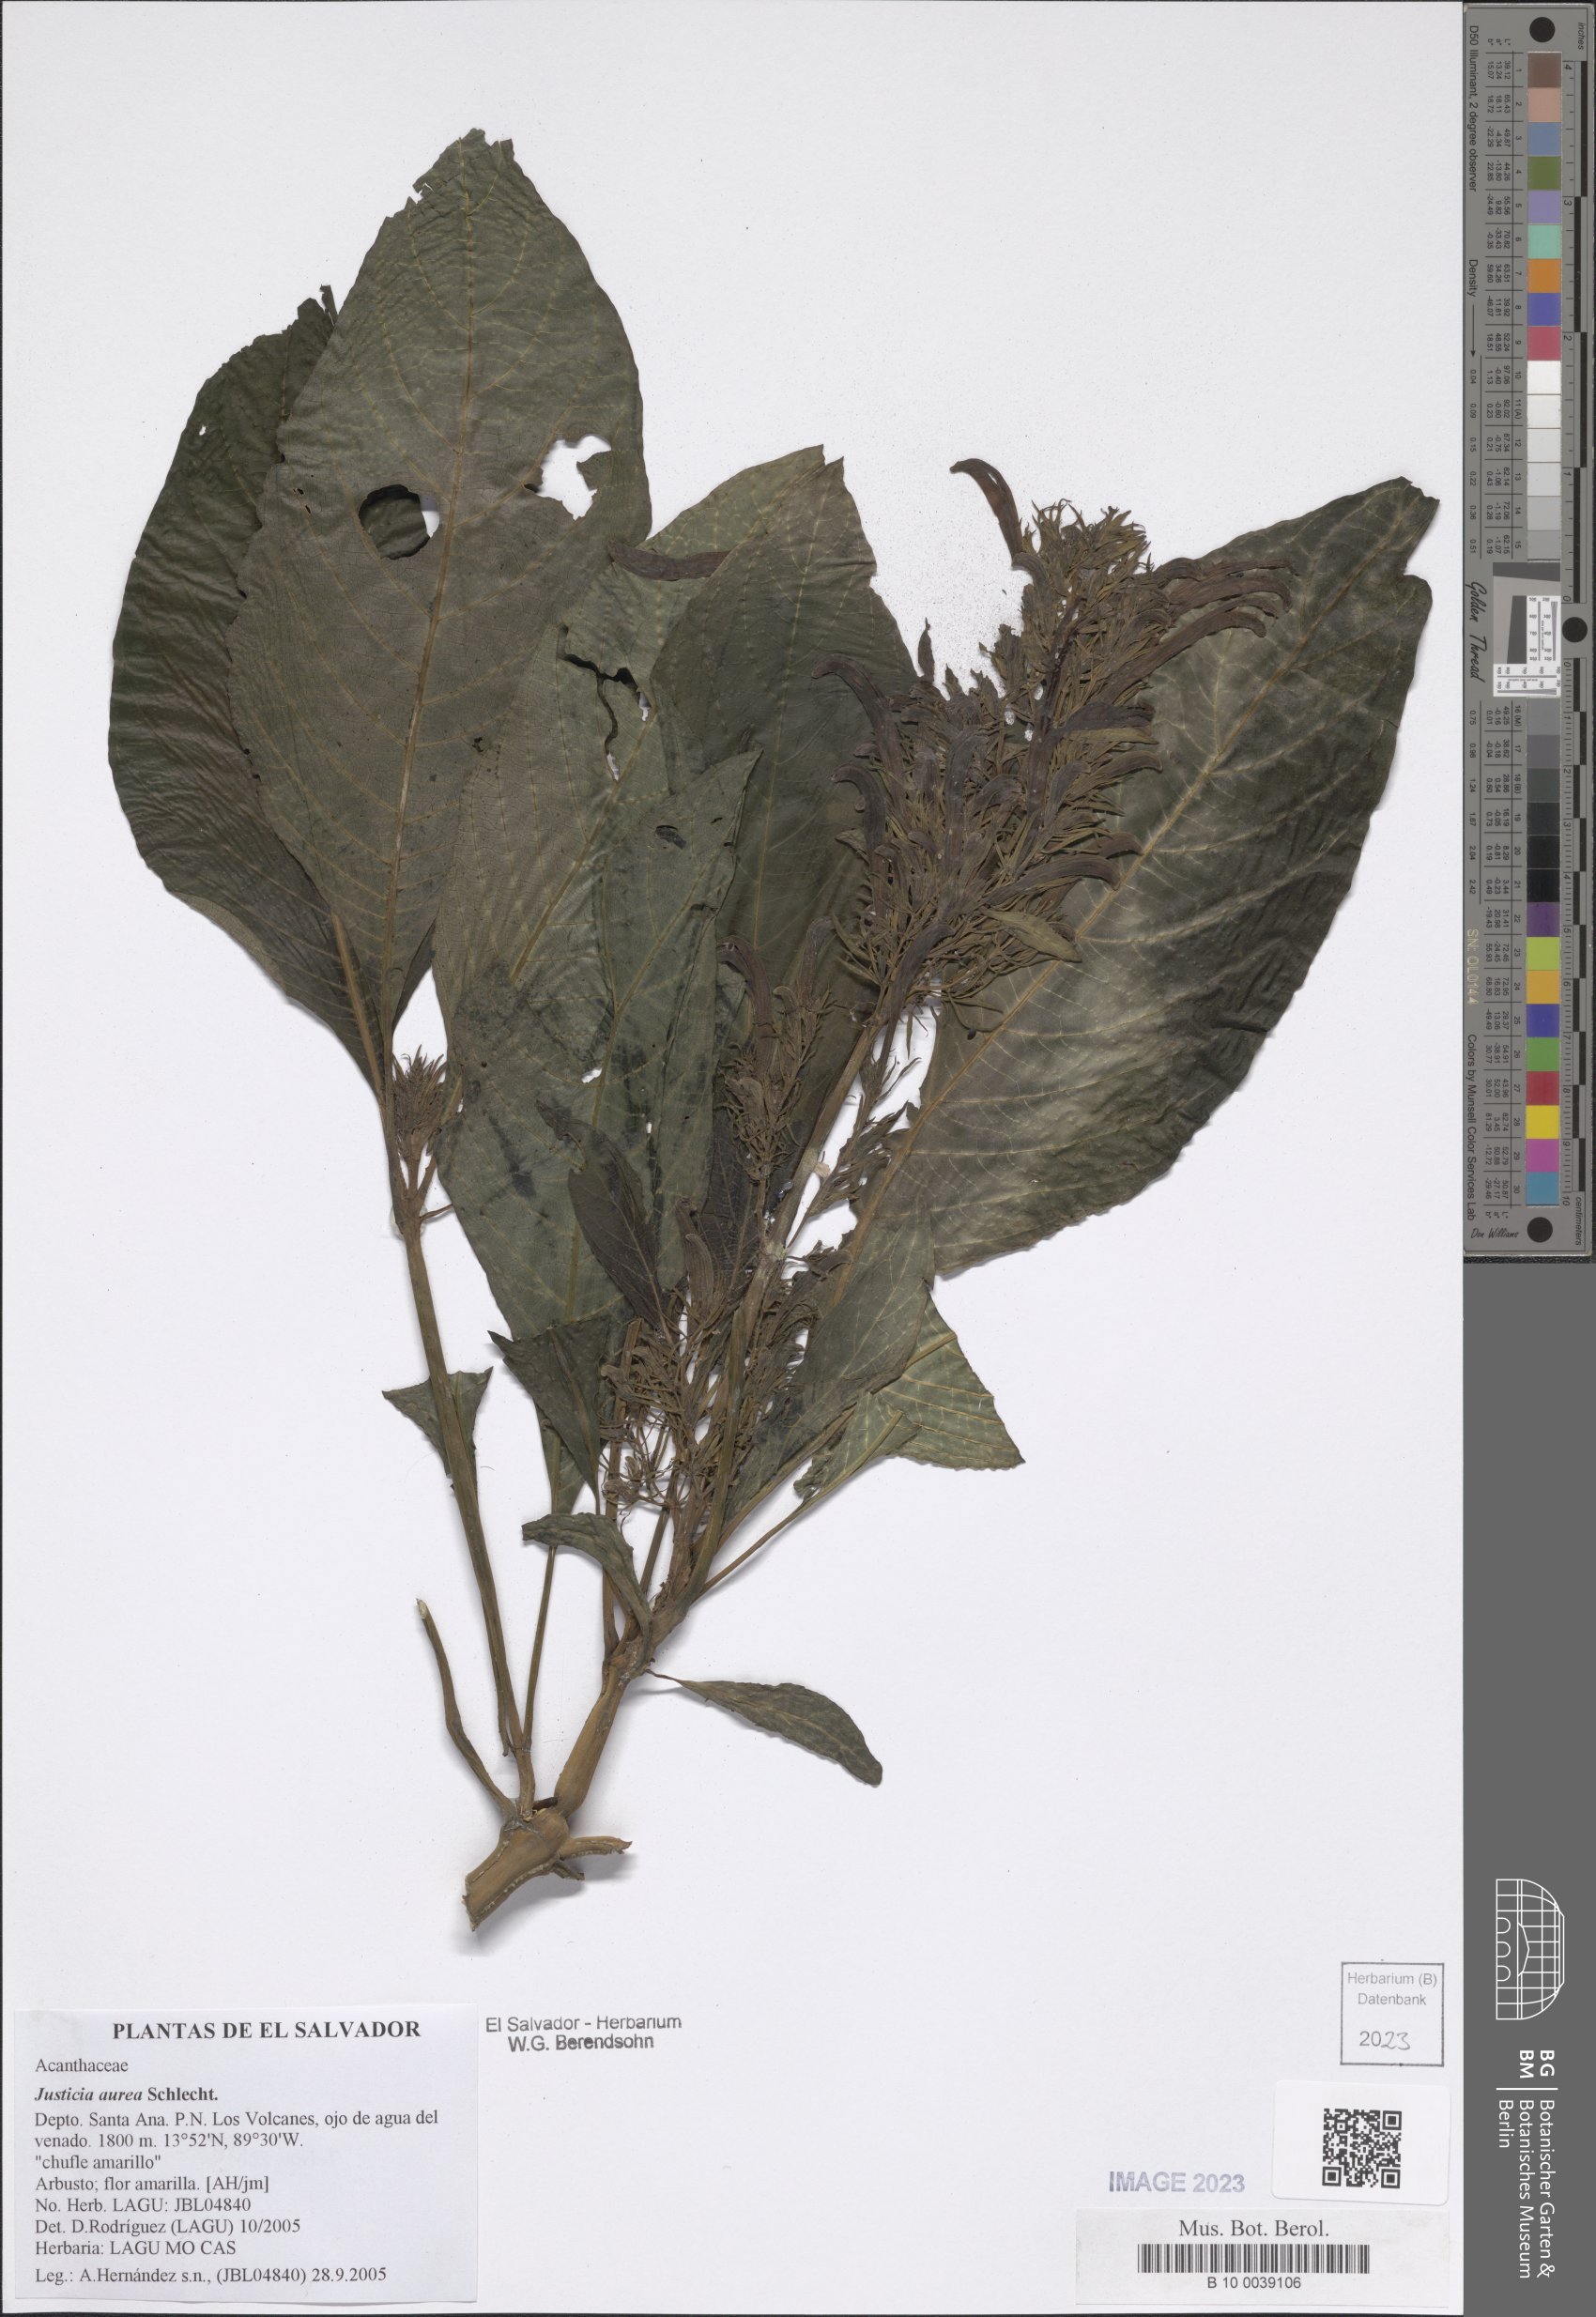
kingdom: Plantae
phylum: Tracheophyta
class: Magnoliopsida
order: Lamiales
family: Acanthaceae
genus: Justicia
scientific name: Justicia aurea
